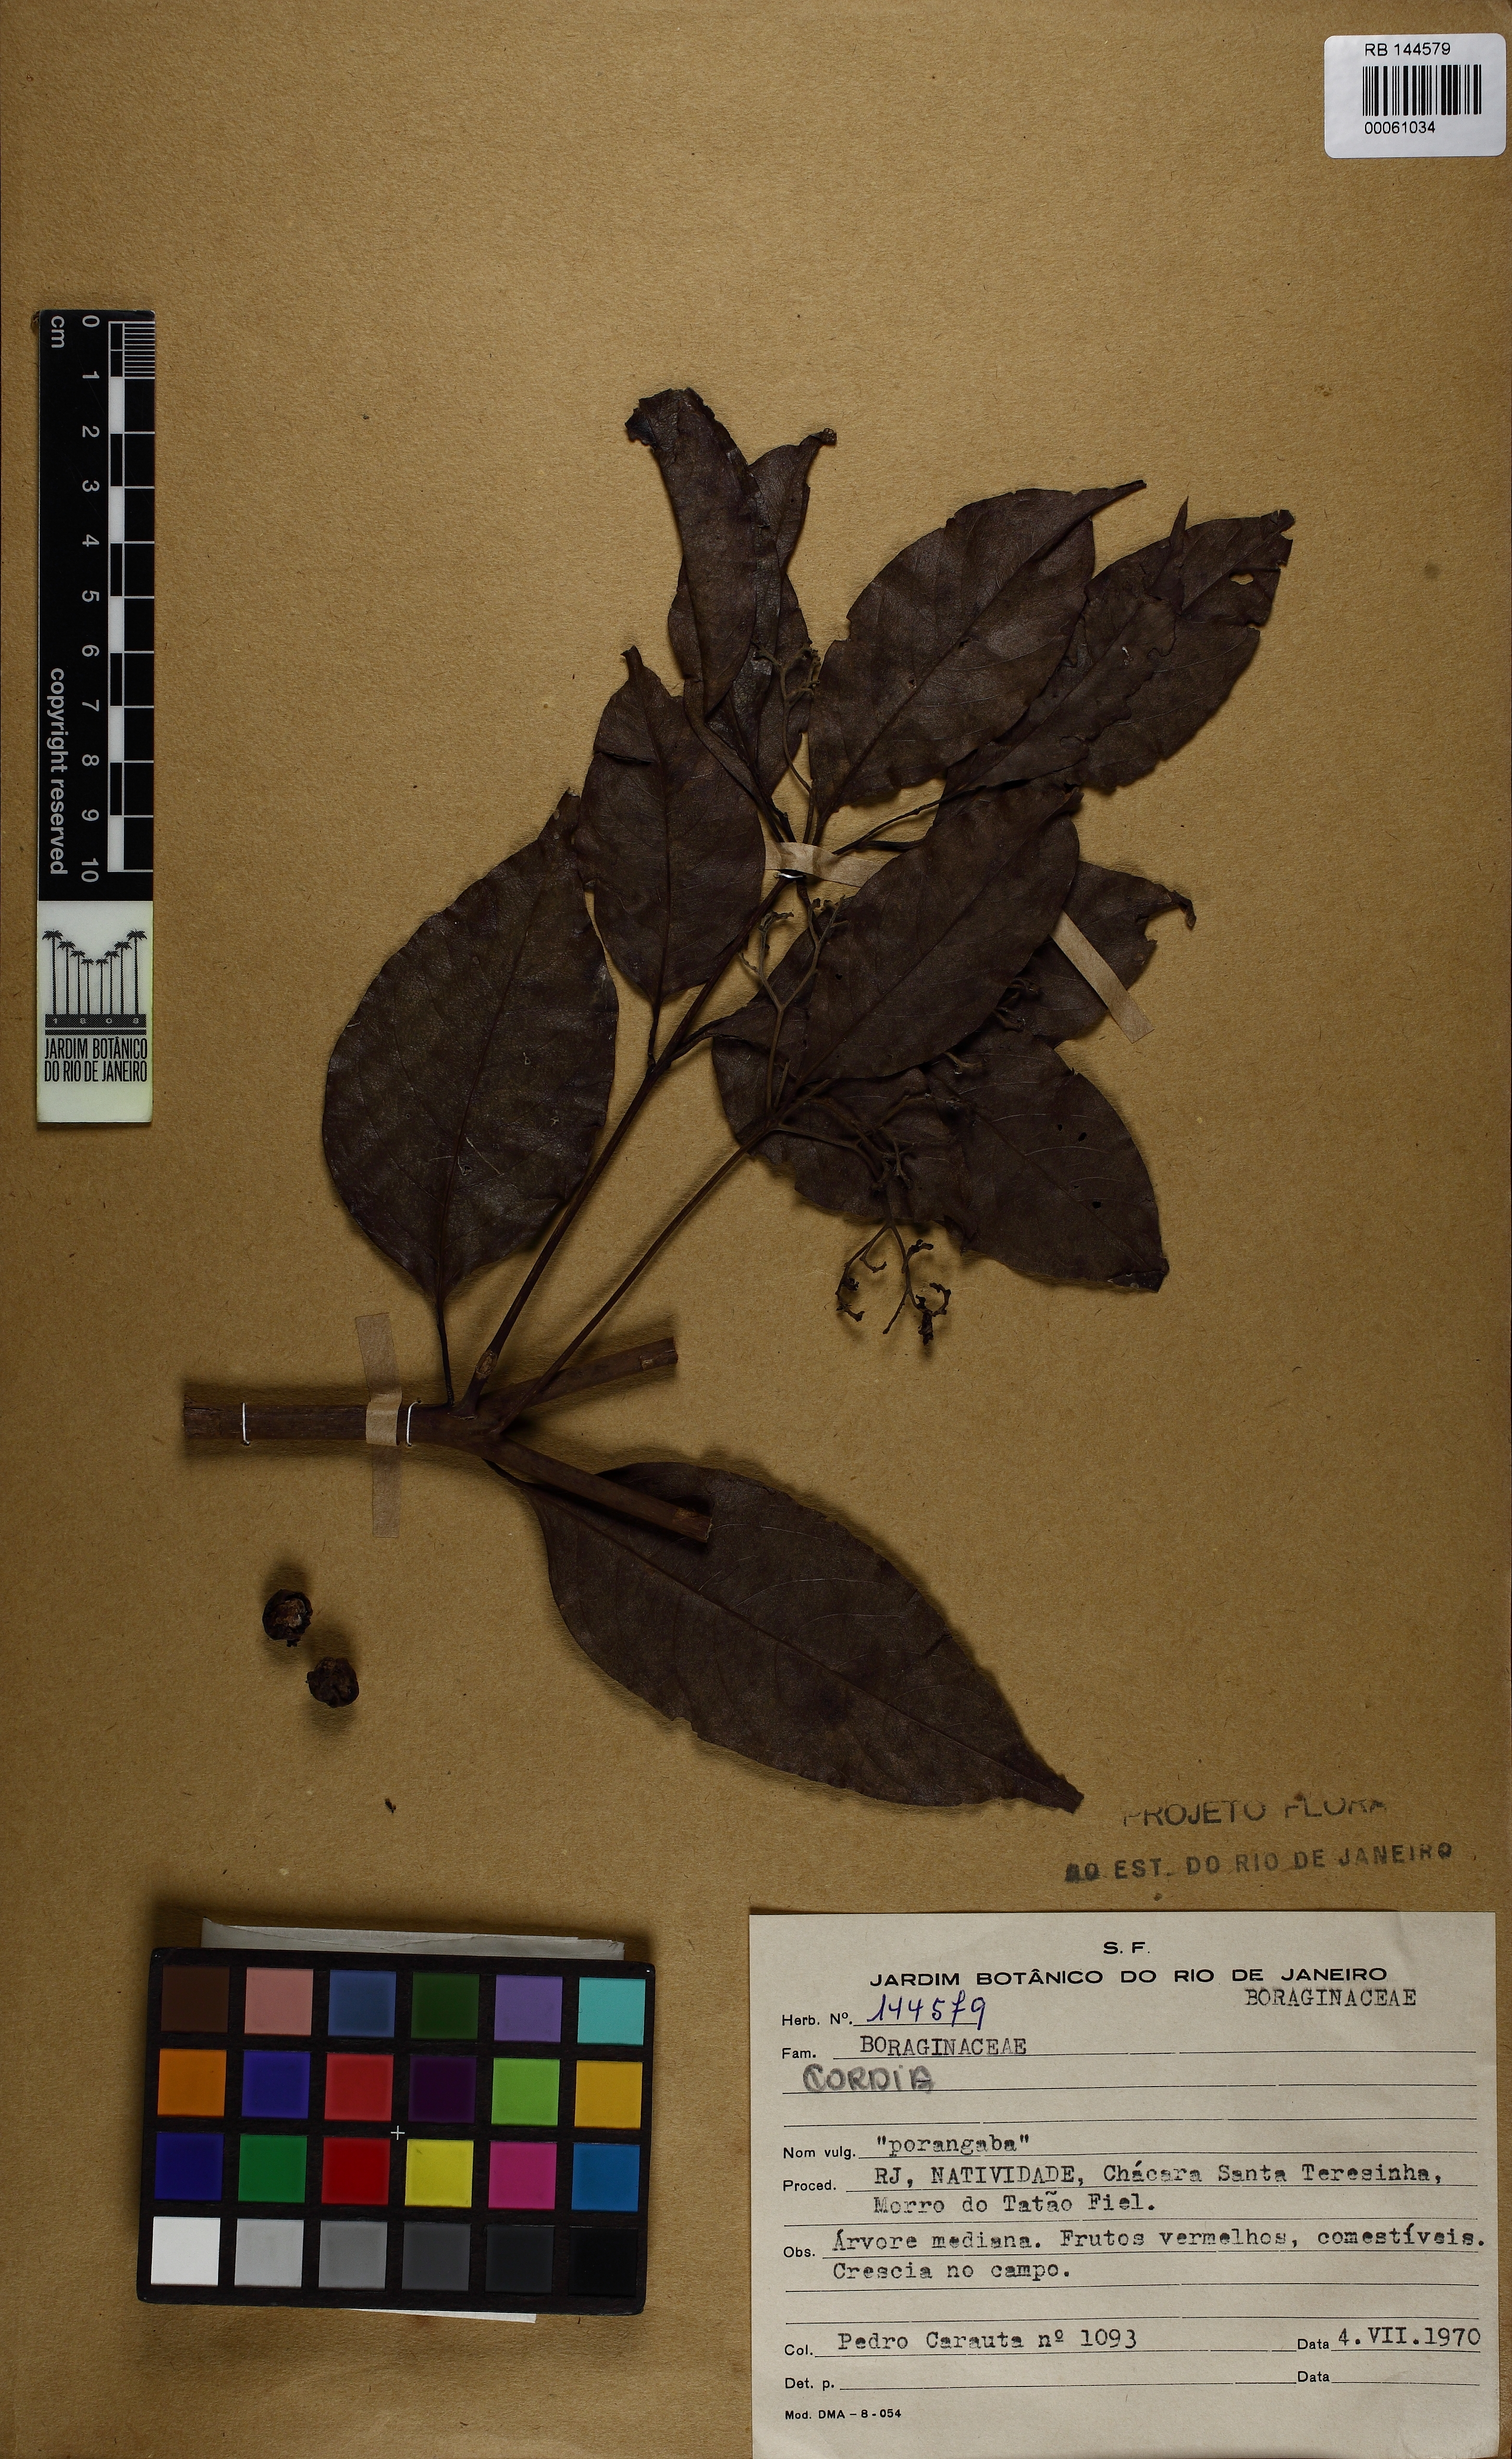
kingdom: Plantae
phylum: Tracheophyta
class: Magnoliopsida
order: Boraginales
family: Cordiaceae
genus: Cordia
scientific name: Cordia
